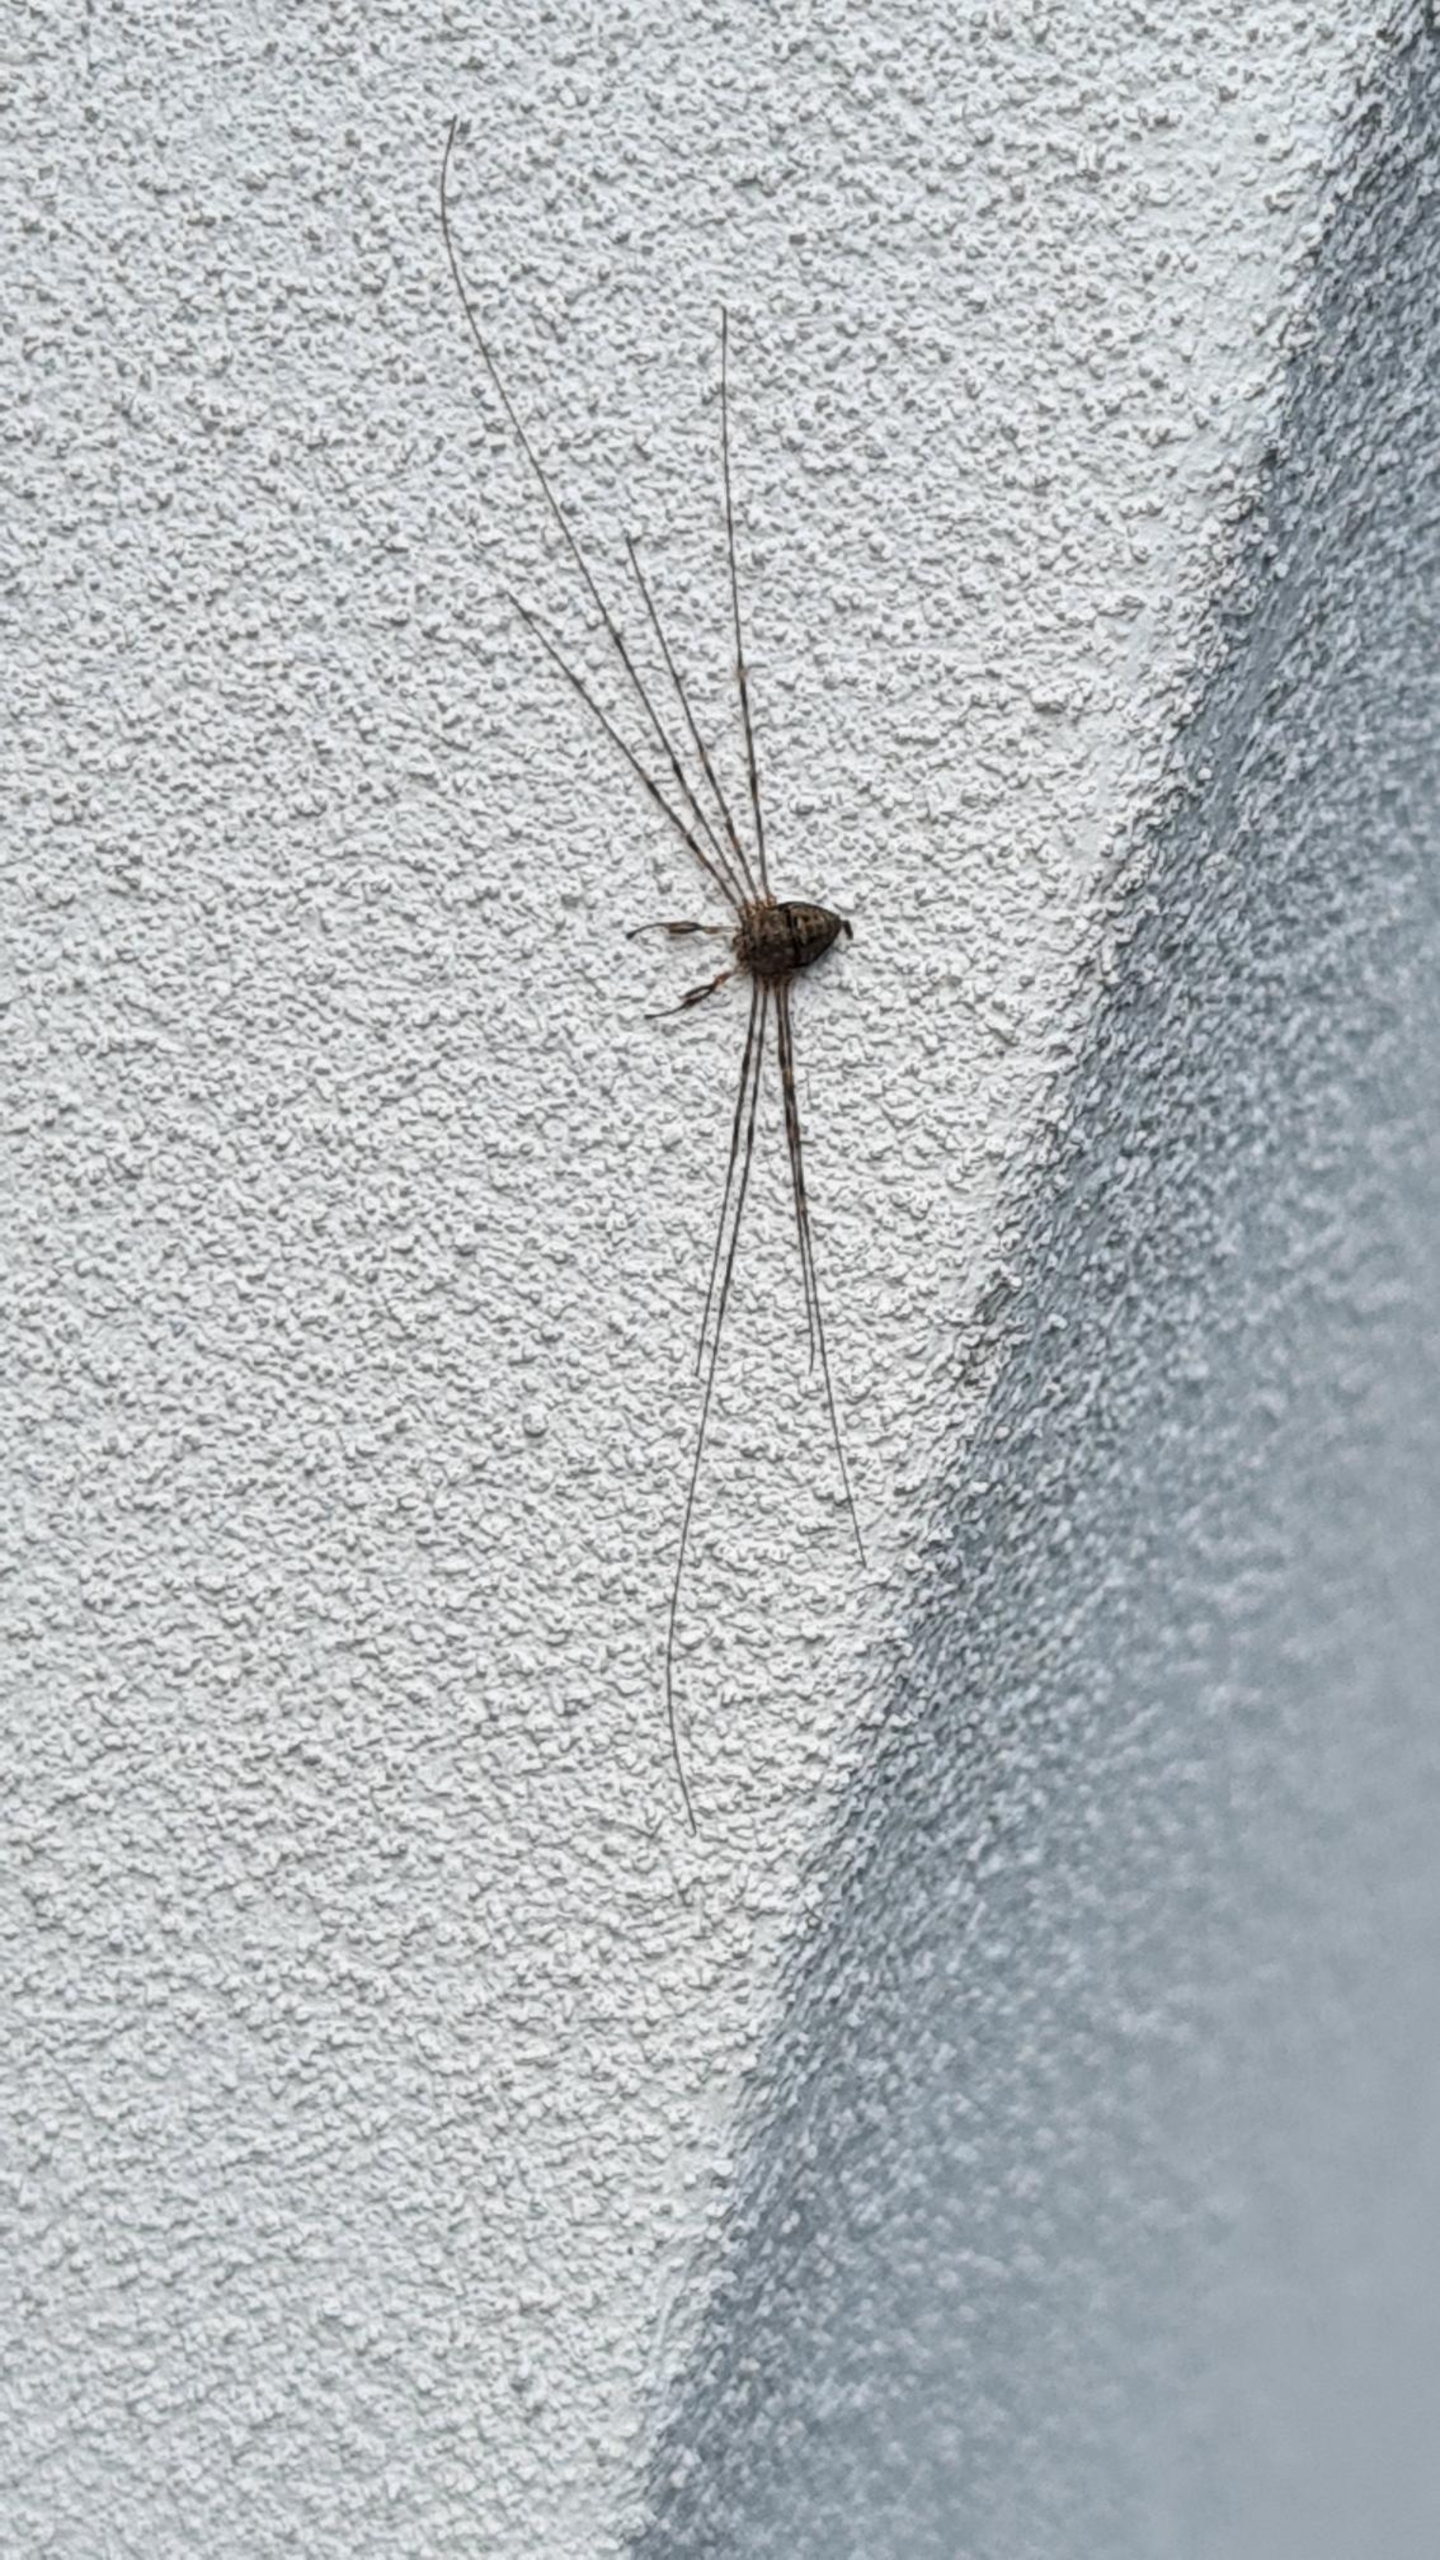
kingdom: Animalia
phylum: Arthropoda
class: Arachnida
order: Opiliones
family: Phalangiidae
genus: Dicranopalpus
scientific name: Dicranopalpus ramosus
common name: Gaffelmejer
